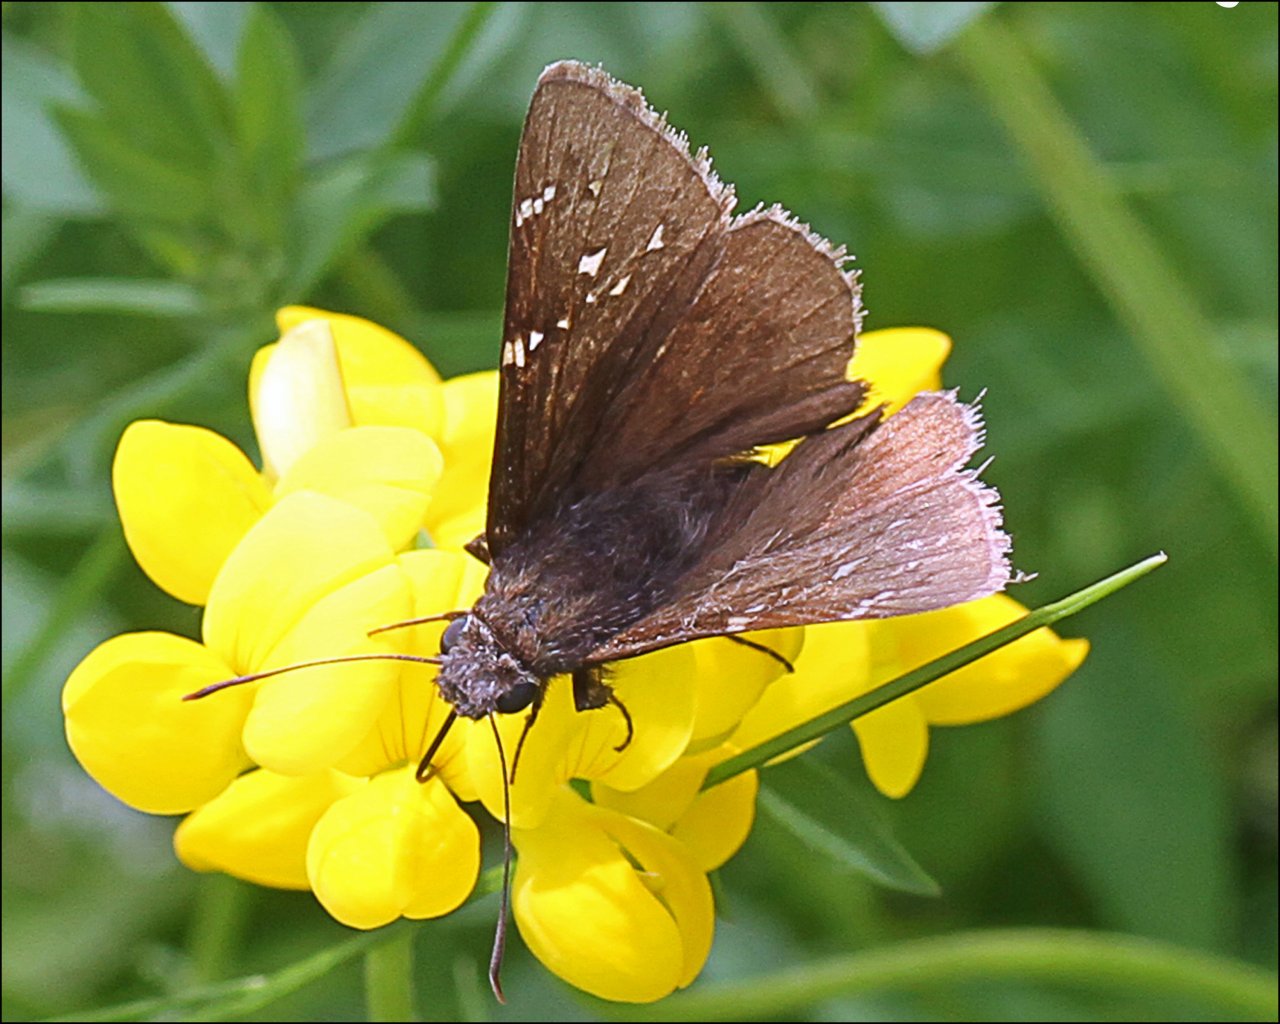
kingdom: Animalia
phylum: Arthropoda
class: Insecta
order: Lepidoptera
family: Hesperiidae
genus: Autochton
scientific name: Autochton
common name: Northern Cloudywing
